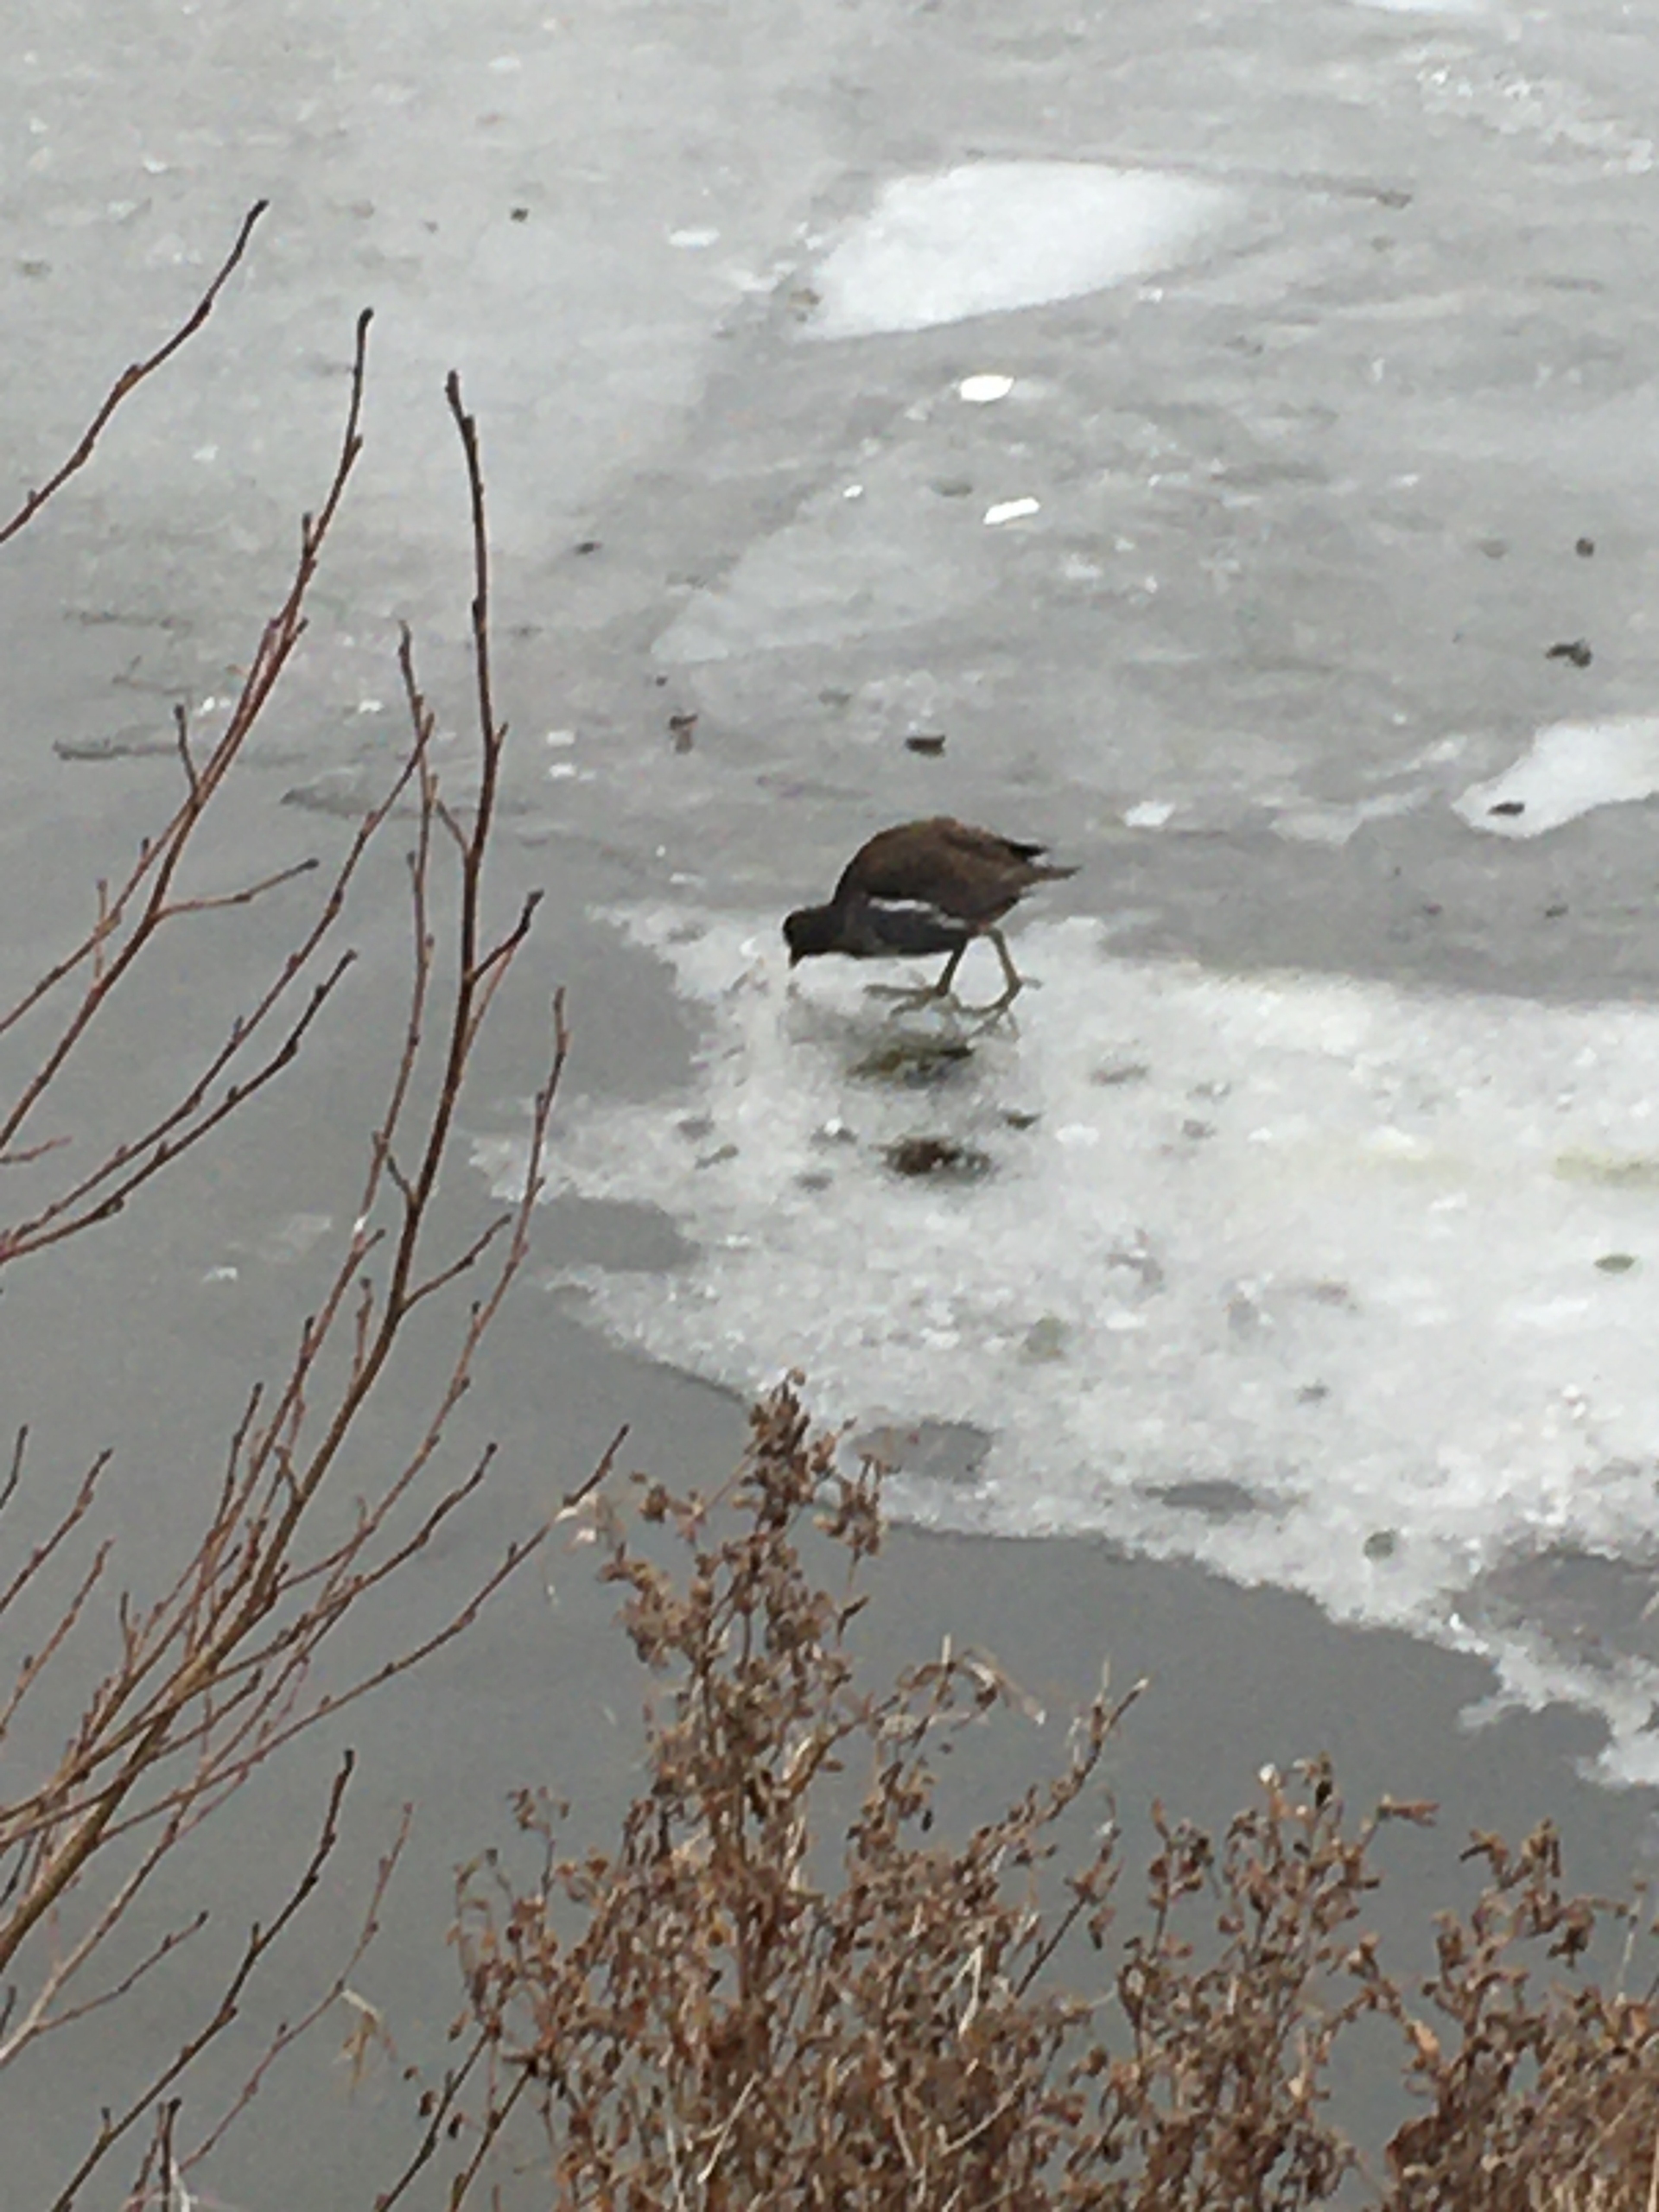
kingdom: Animalia
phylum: Chordata
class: Aves
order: Gruiformes
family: Rallidae
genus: Gallinula
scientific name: Gallinula chloropus
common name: Grønbenet rørhøne
